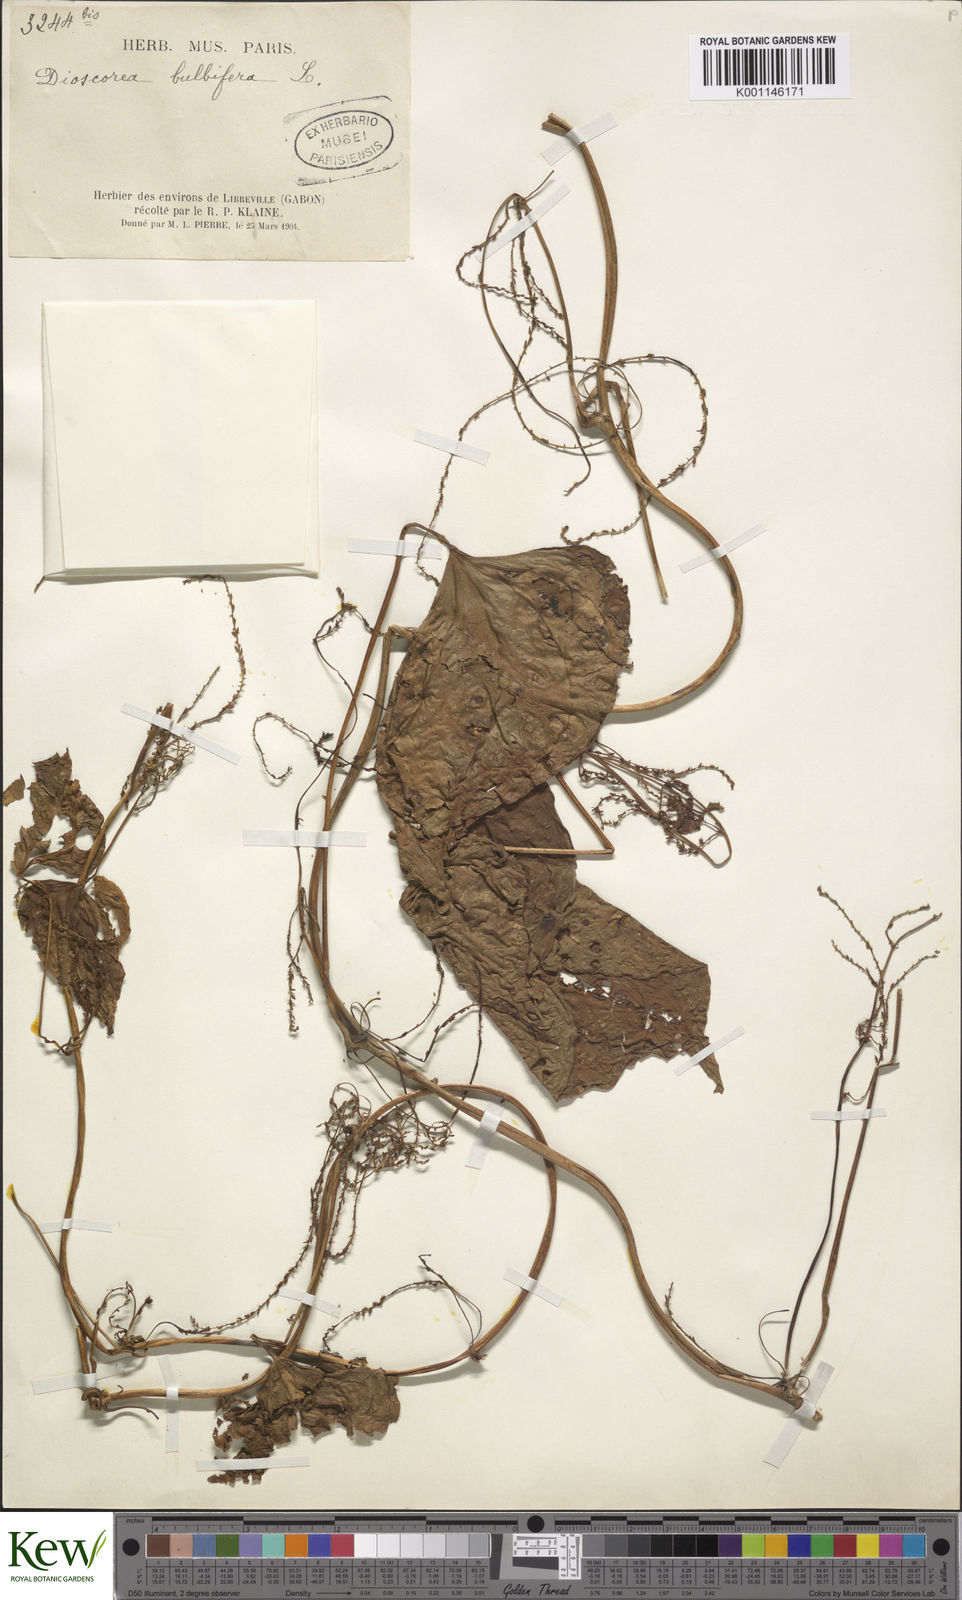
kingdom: Plantae
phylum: Tracheophyta
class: Liliopsida
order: Dioscoreales
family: Dioscoreaceae
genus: Dioscorea
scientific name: Dioscorea bulbifera
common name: Air yam
